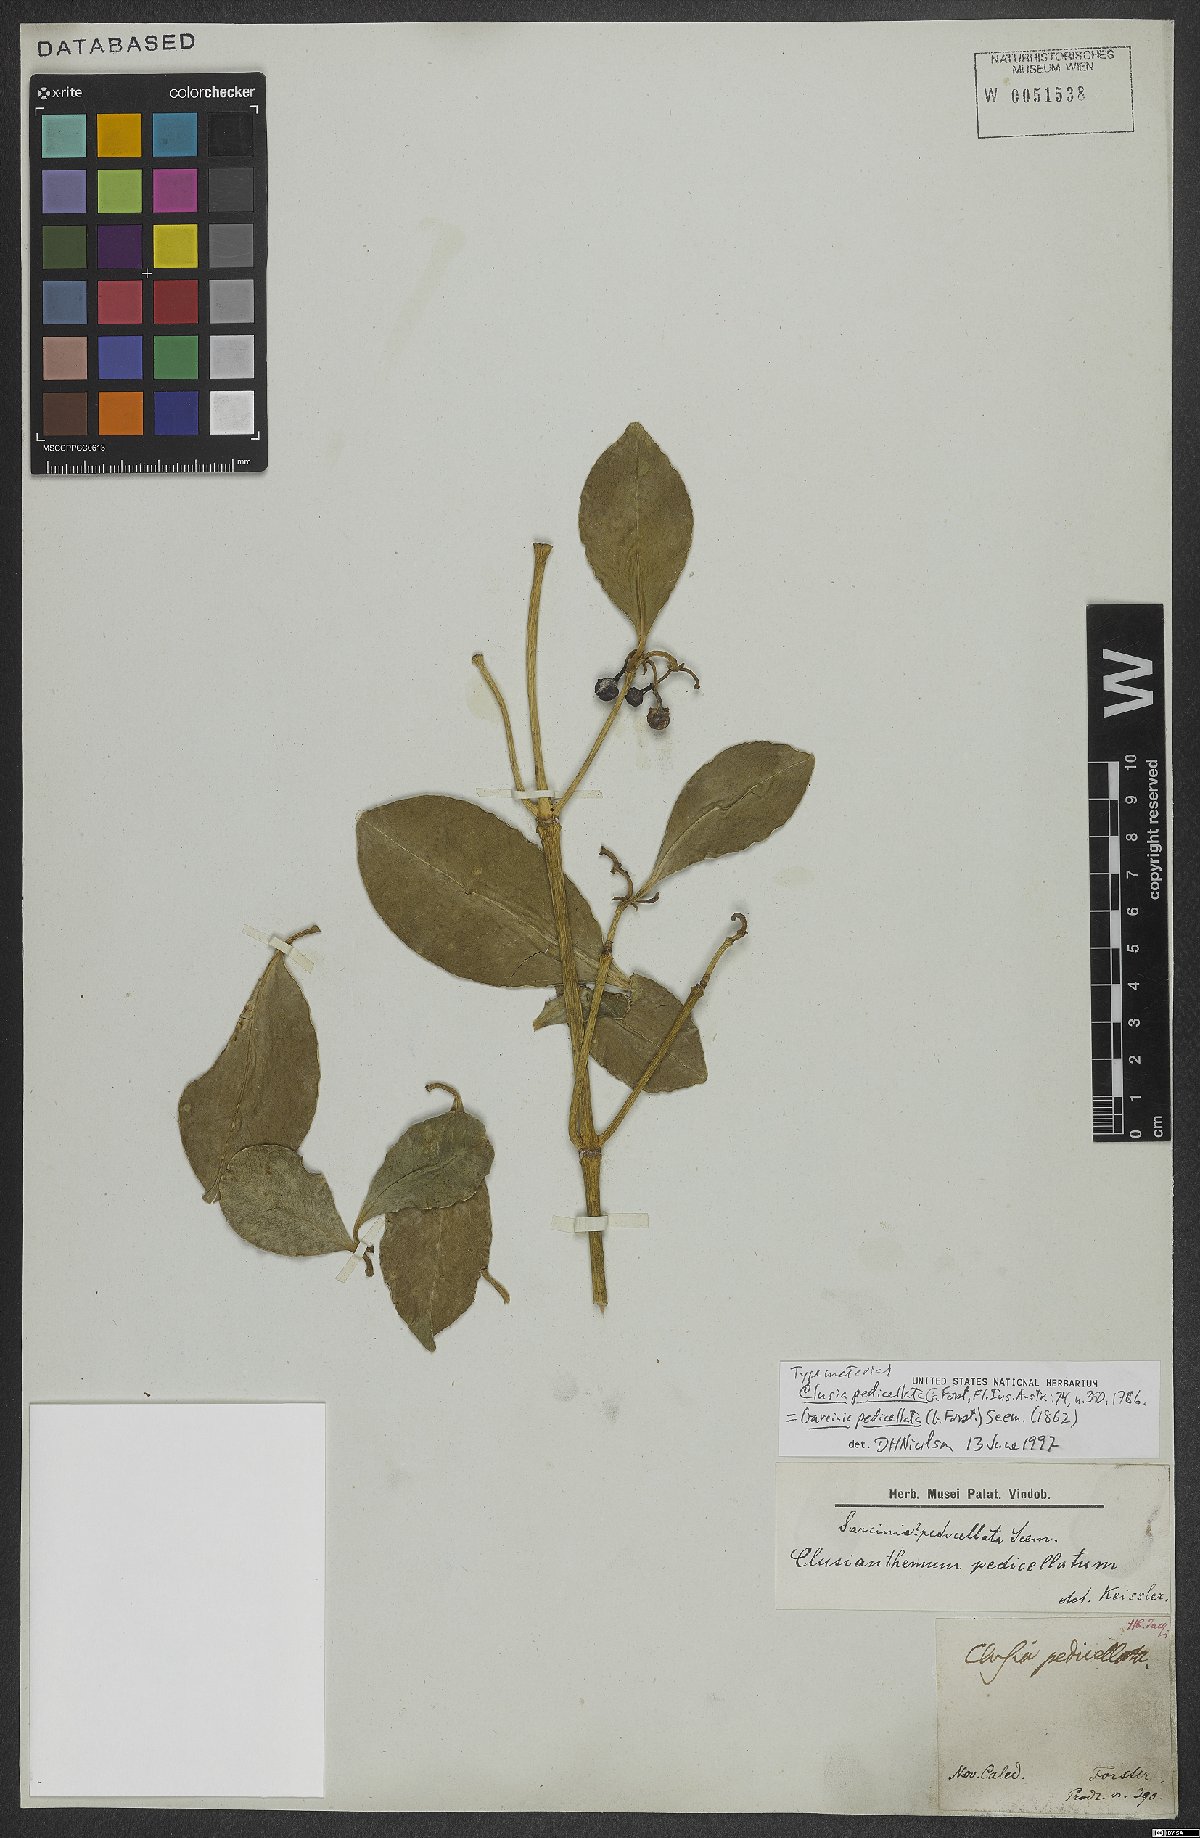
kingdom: Plantae
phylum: Tracheophyta
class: Magnoliopsida
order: Malpighiales
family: Clusiaceae
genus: Garcinia
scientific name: Garcinia pseudoguttifera
